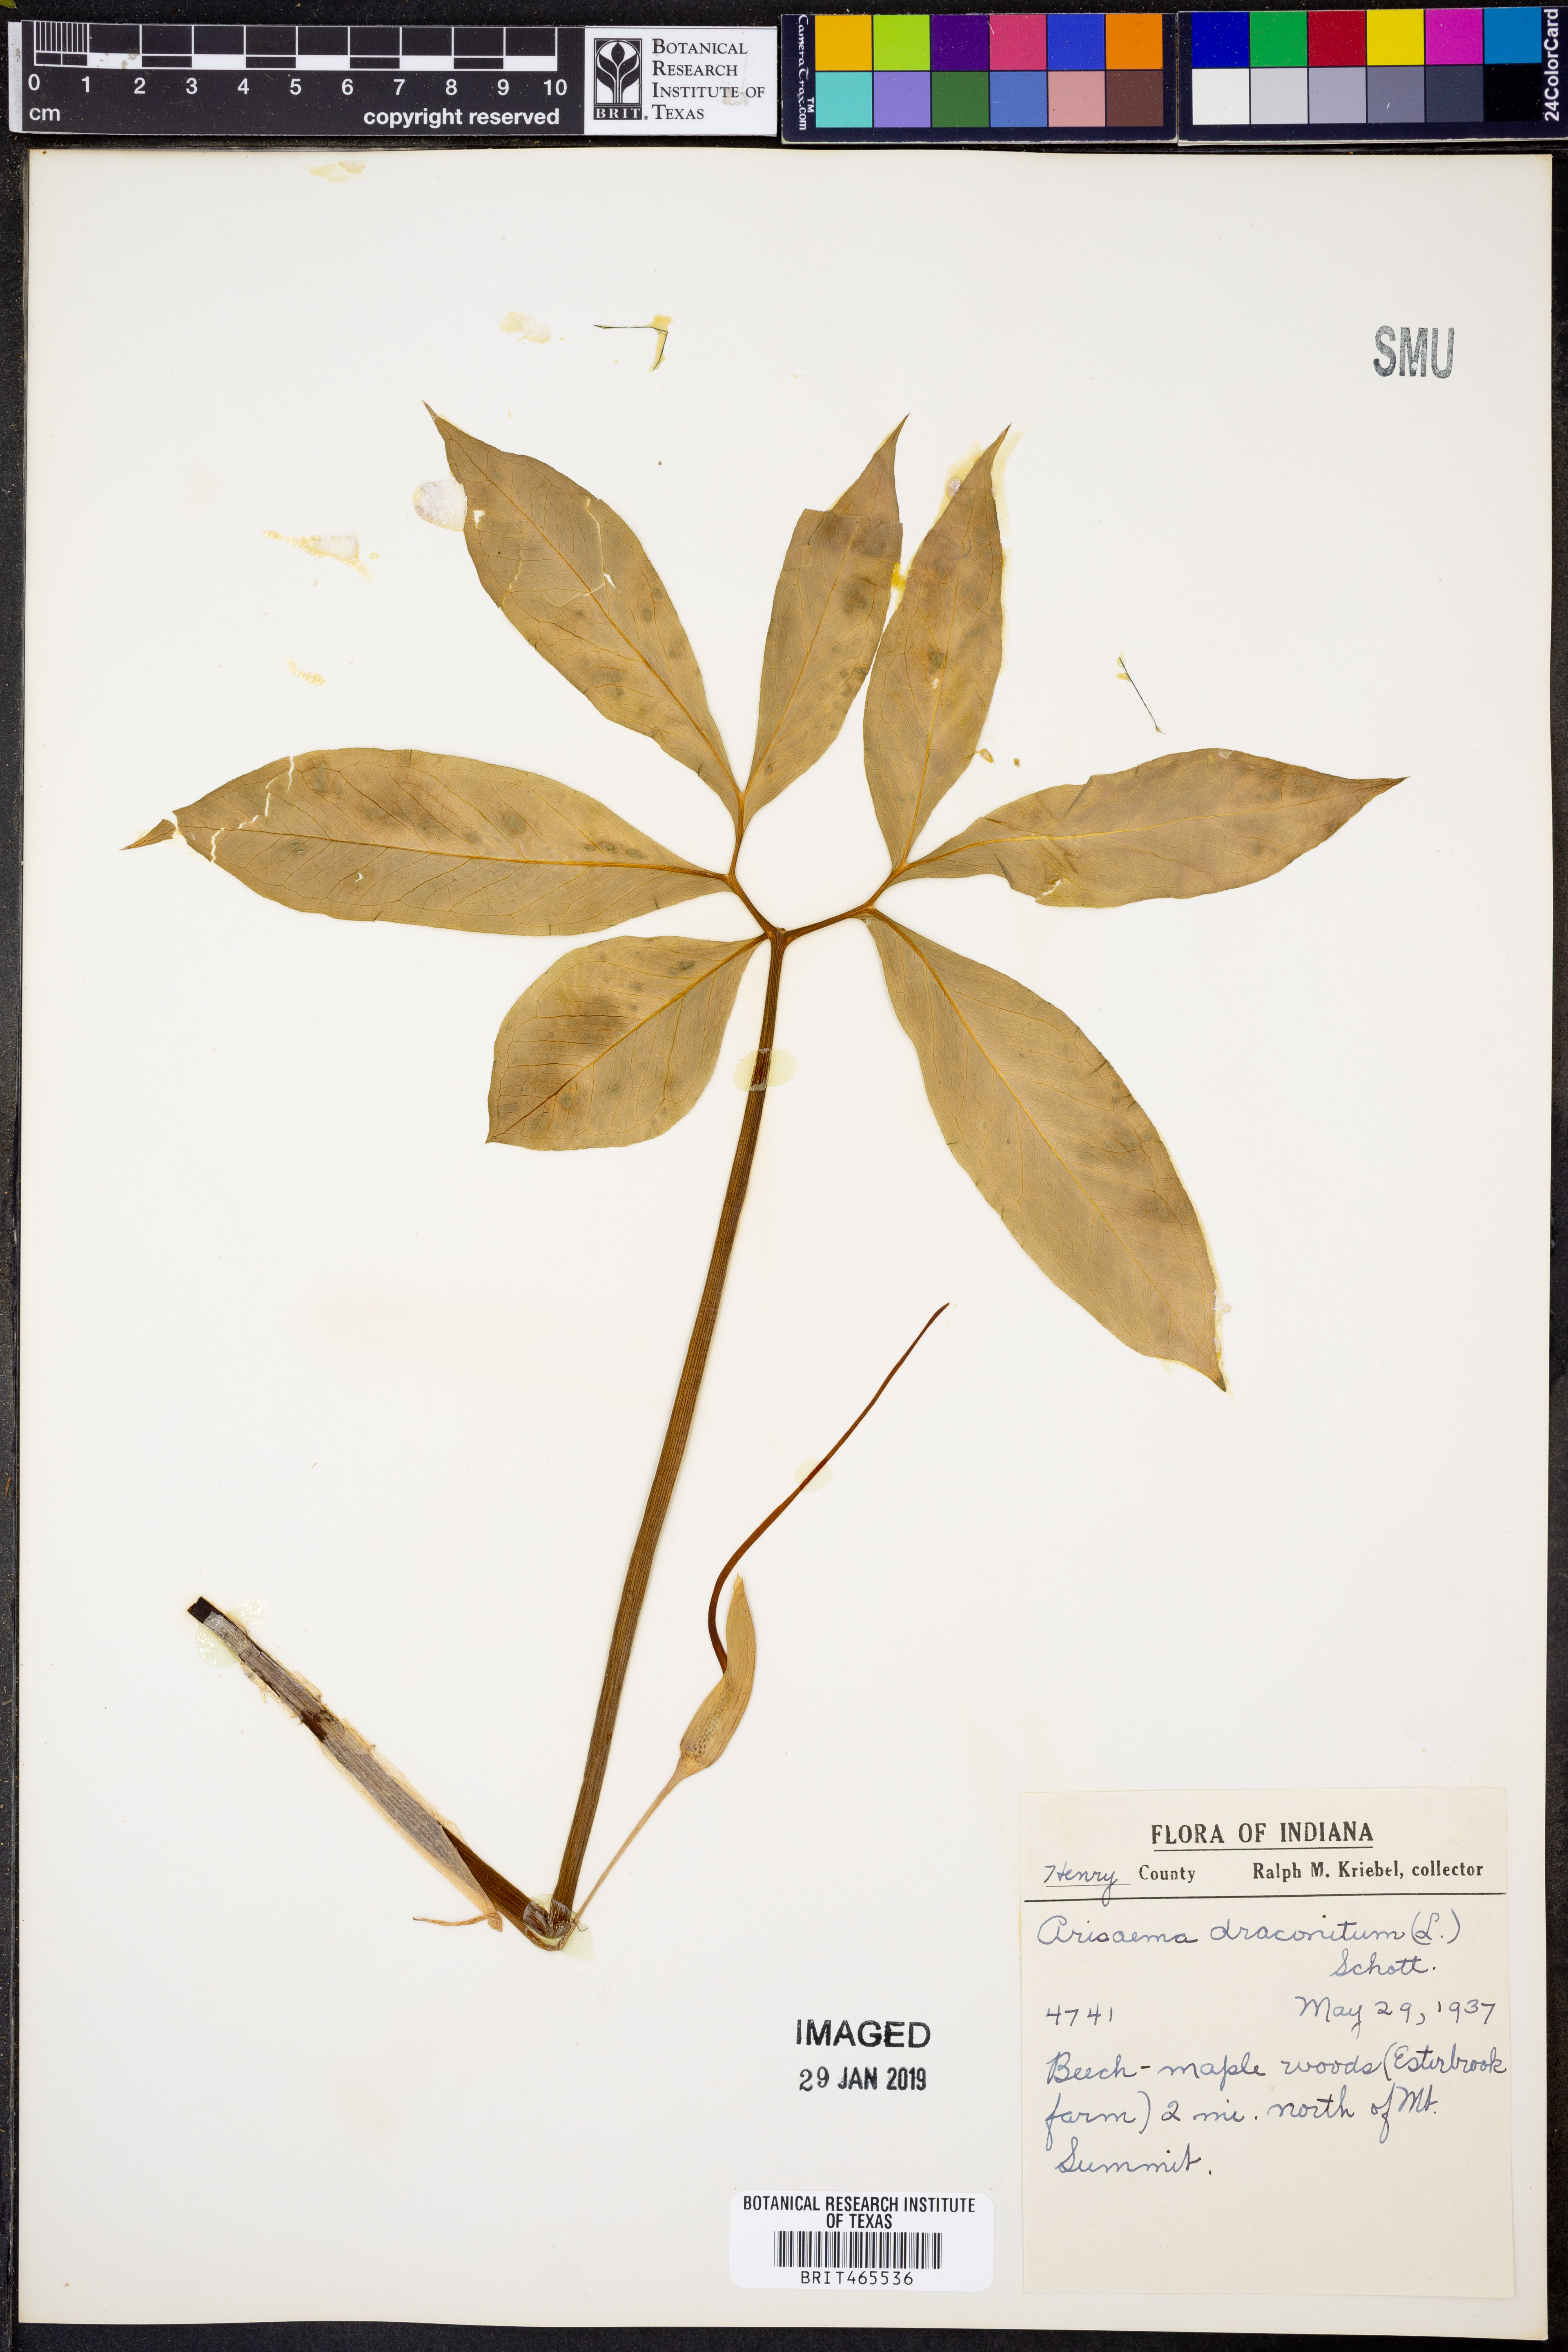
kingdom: Plantae
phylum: Tracheophyta
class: Liliopsida
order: Alismatales
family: Araceae
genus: Arisaema
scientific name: Arisaema dracontium
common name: Dragon-arum
